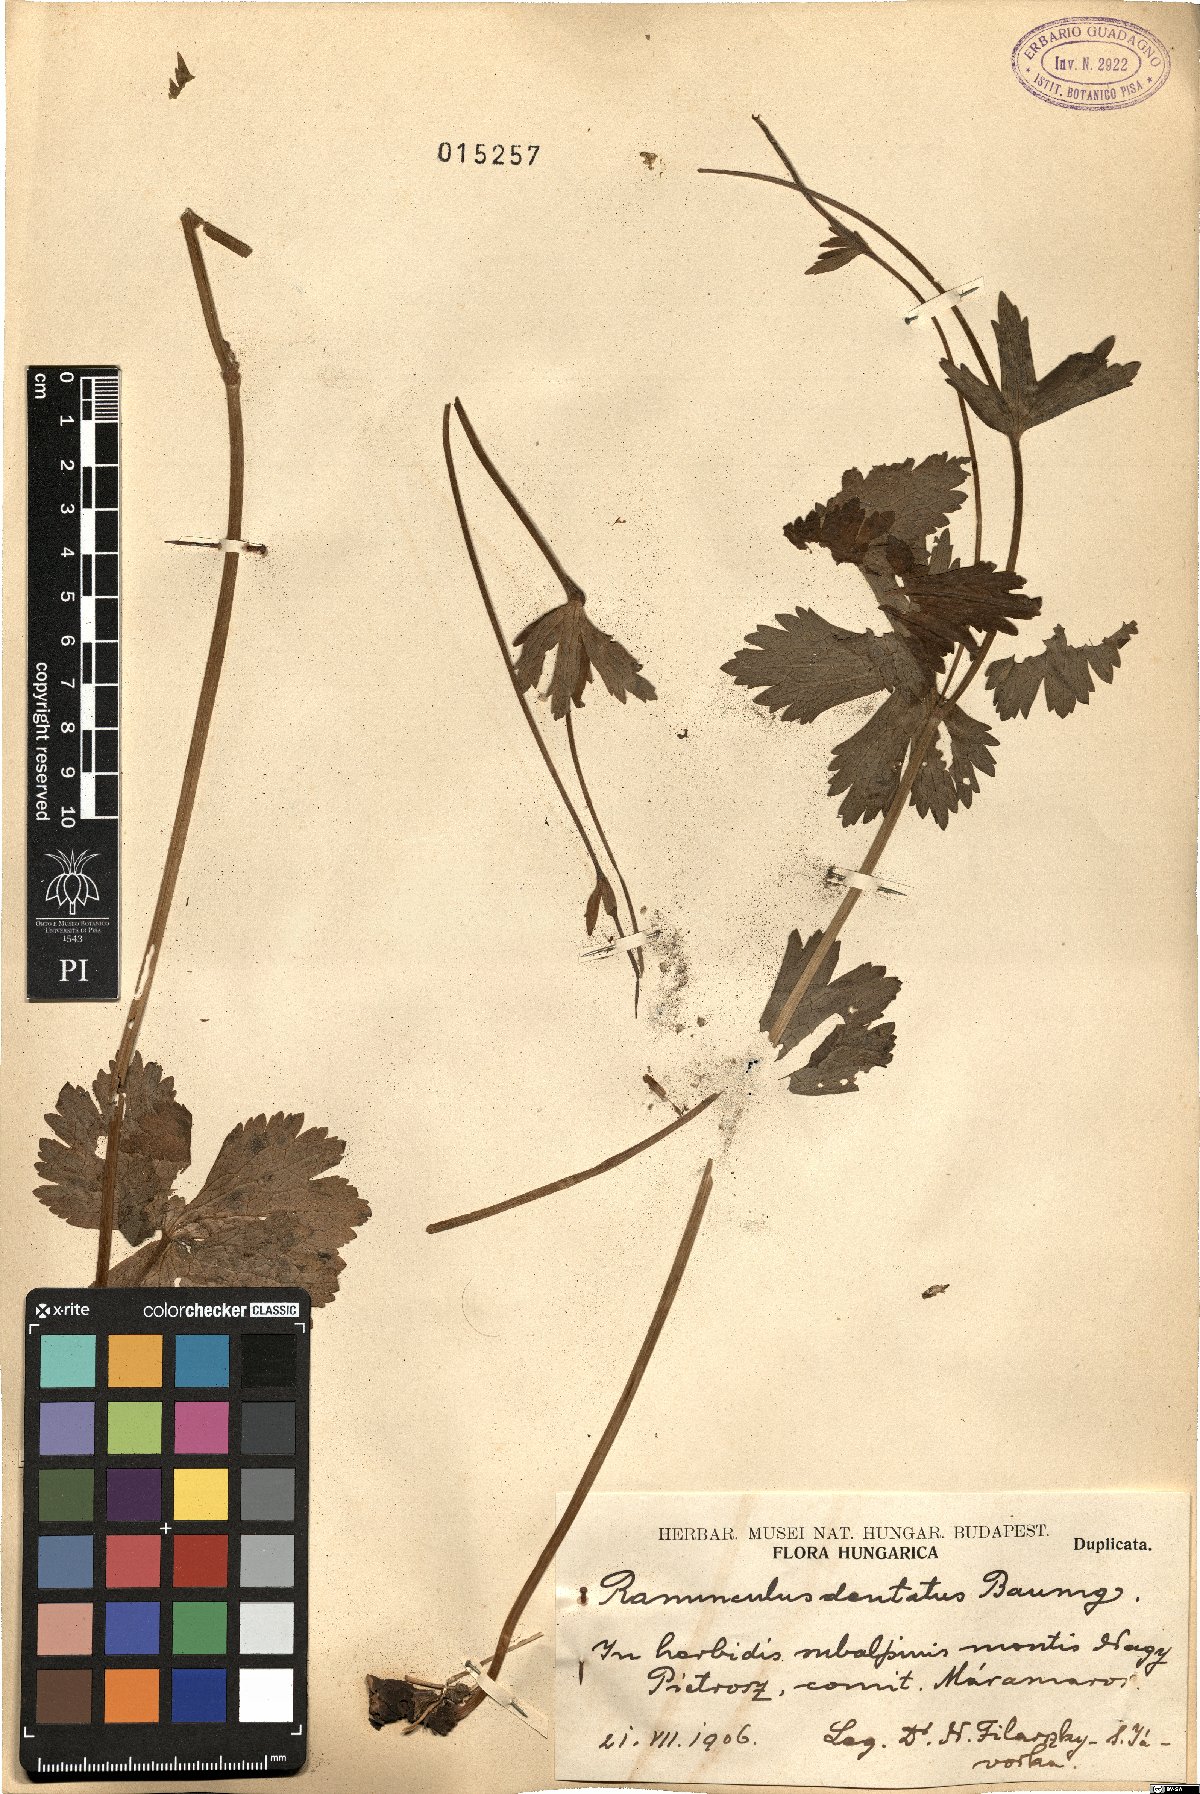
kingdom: Plantae
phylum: Tracheophyta
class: Magnoliopsida
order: Ranunculales
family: Ranunculaceae
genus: Ranunculus
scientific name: Ranunculus carpaticus
